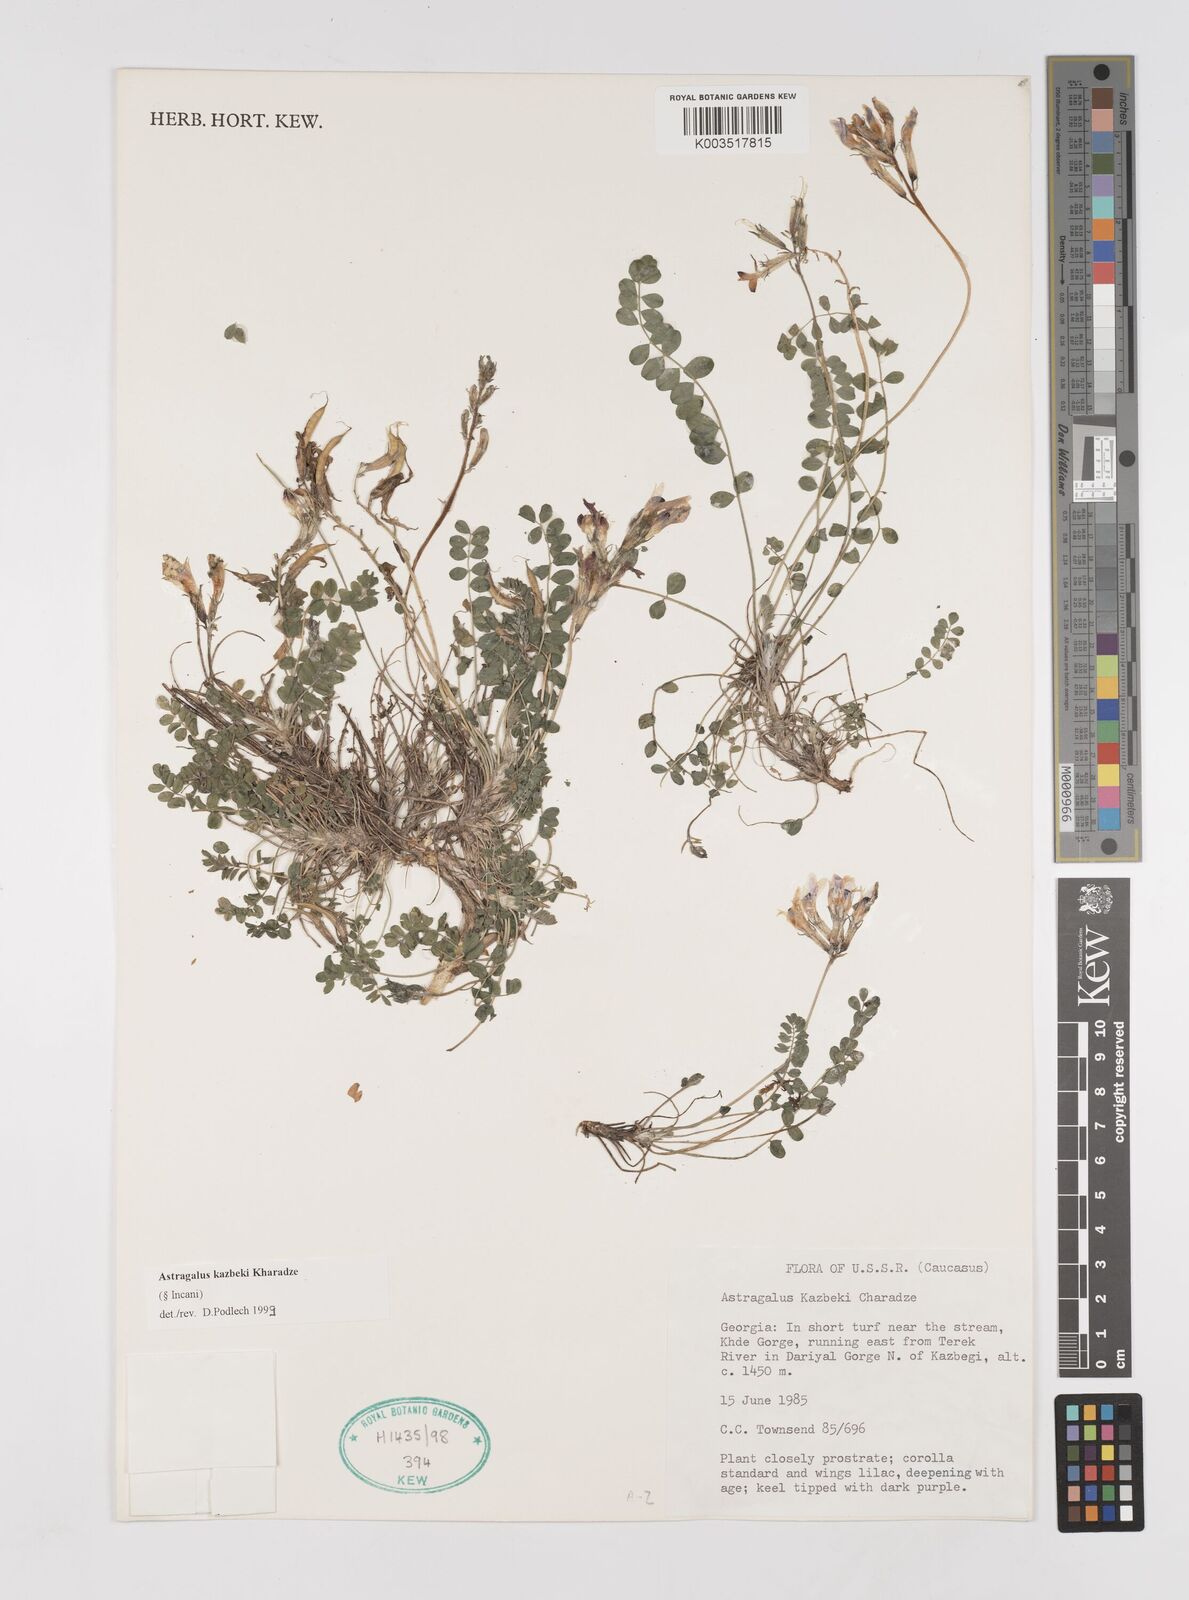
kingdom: Plantae
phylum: Tracheophyta
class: Magnoliopsida
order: Fabales
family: Fabaceae
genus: Astragalus
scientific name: Astragalus kazbeki
